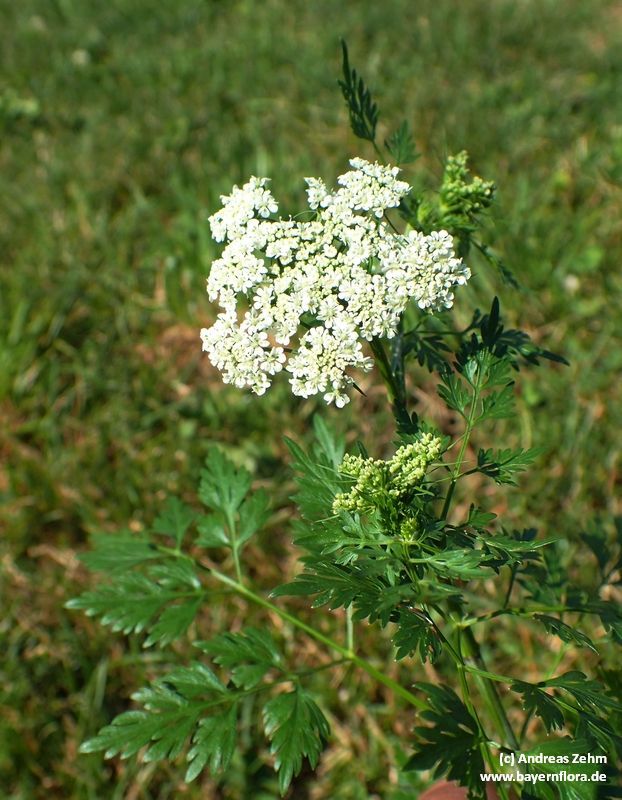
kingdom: Plantae
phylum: Tracheophyta
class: Magnoliopsida
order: Apiales
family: Apiaceae
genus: Aethusa
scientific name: Aethusa cynapium
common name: Fool's parsley
